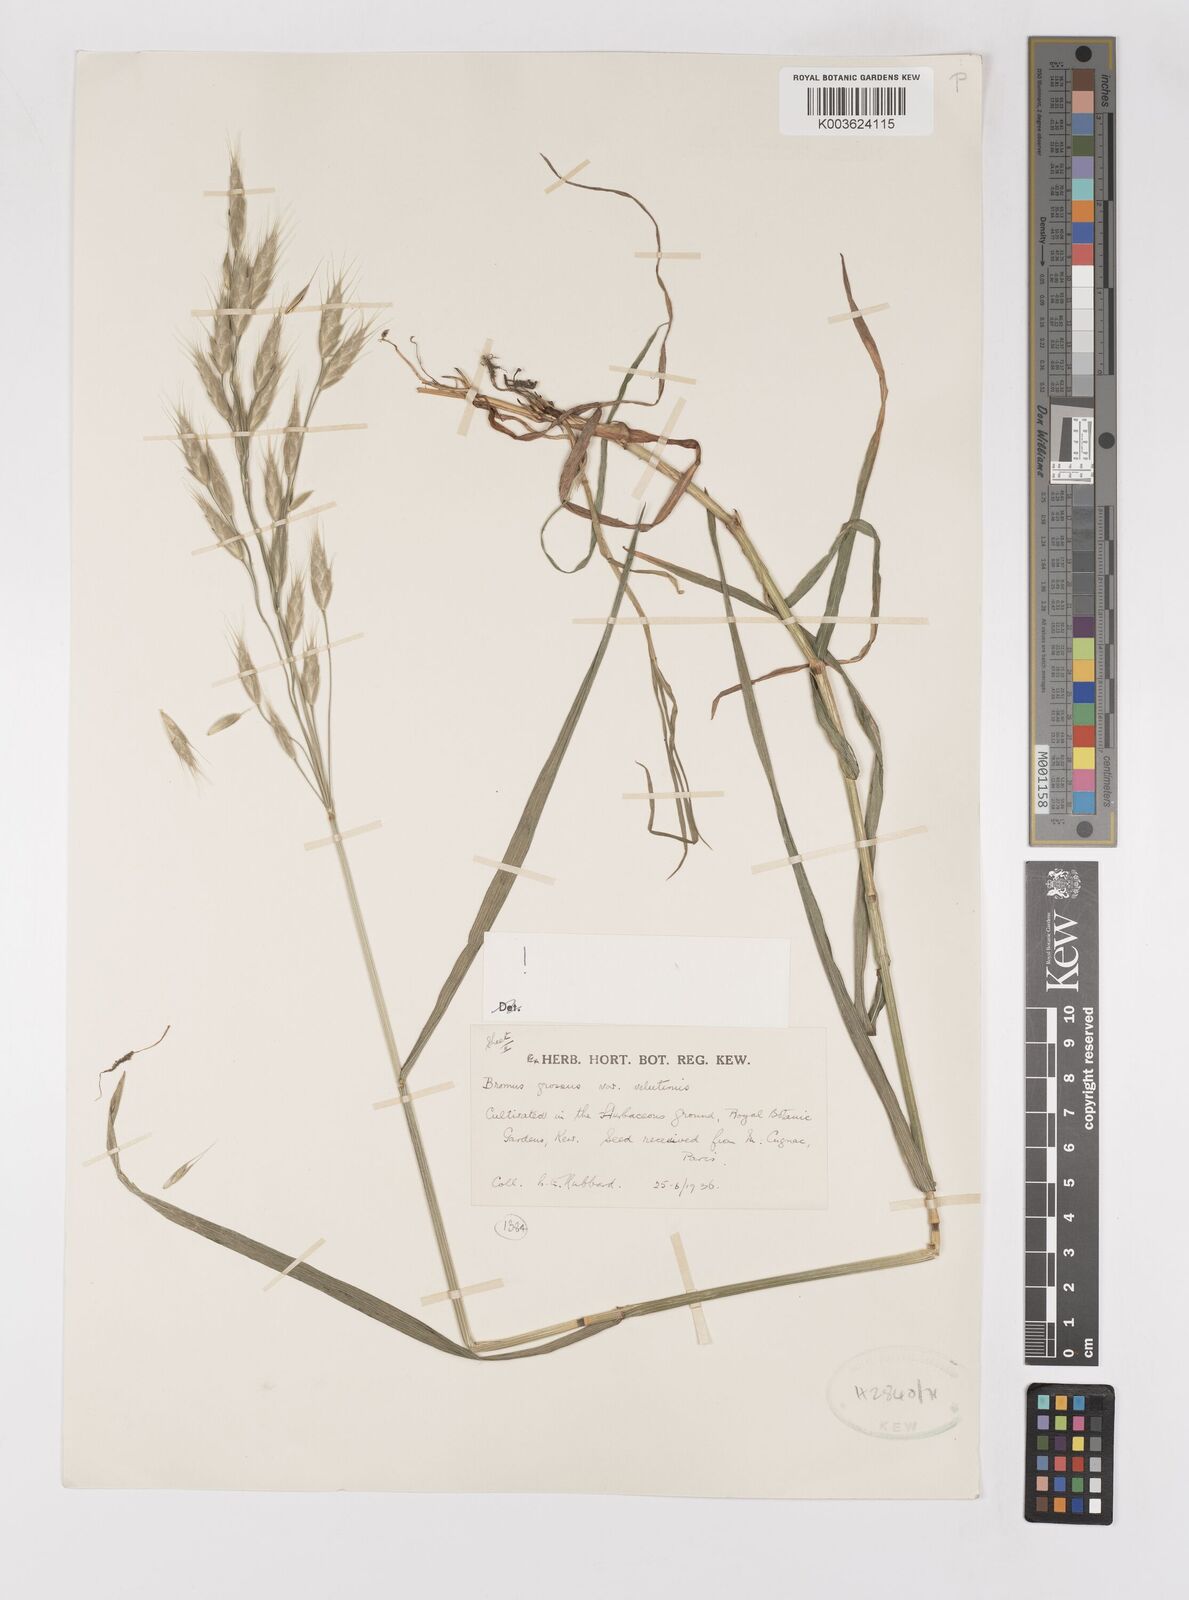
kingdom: Plantae
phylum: Tracheophyta
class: Liliopsida
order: Poales
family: Poaceae
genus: Bromus
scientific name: Bromus grossus
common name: Whiskered brome
